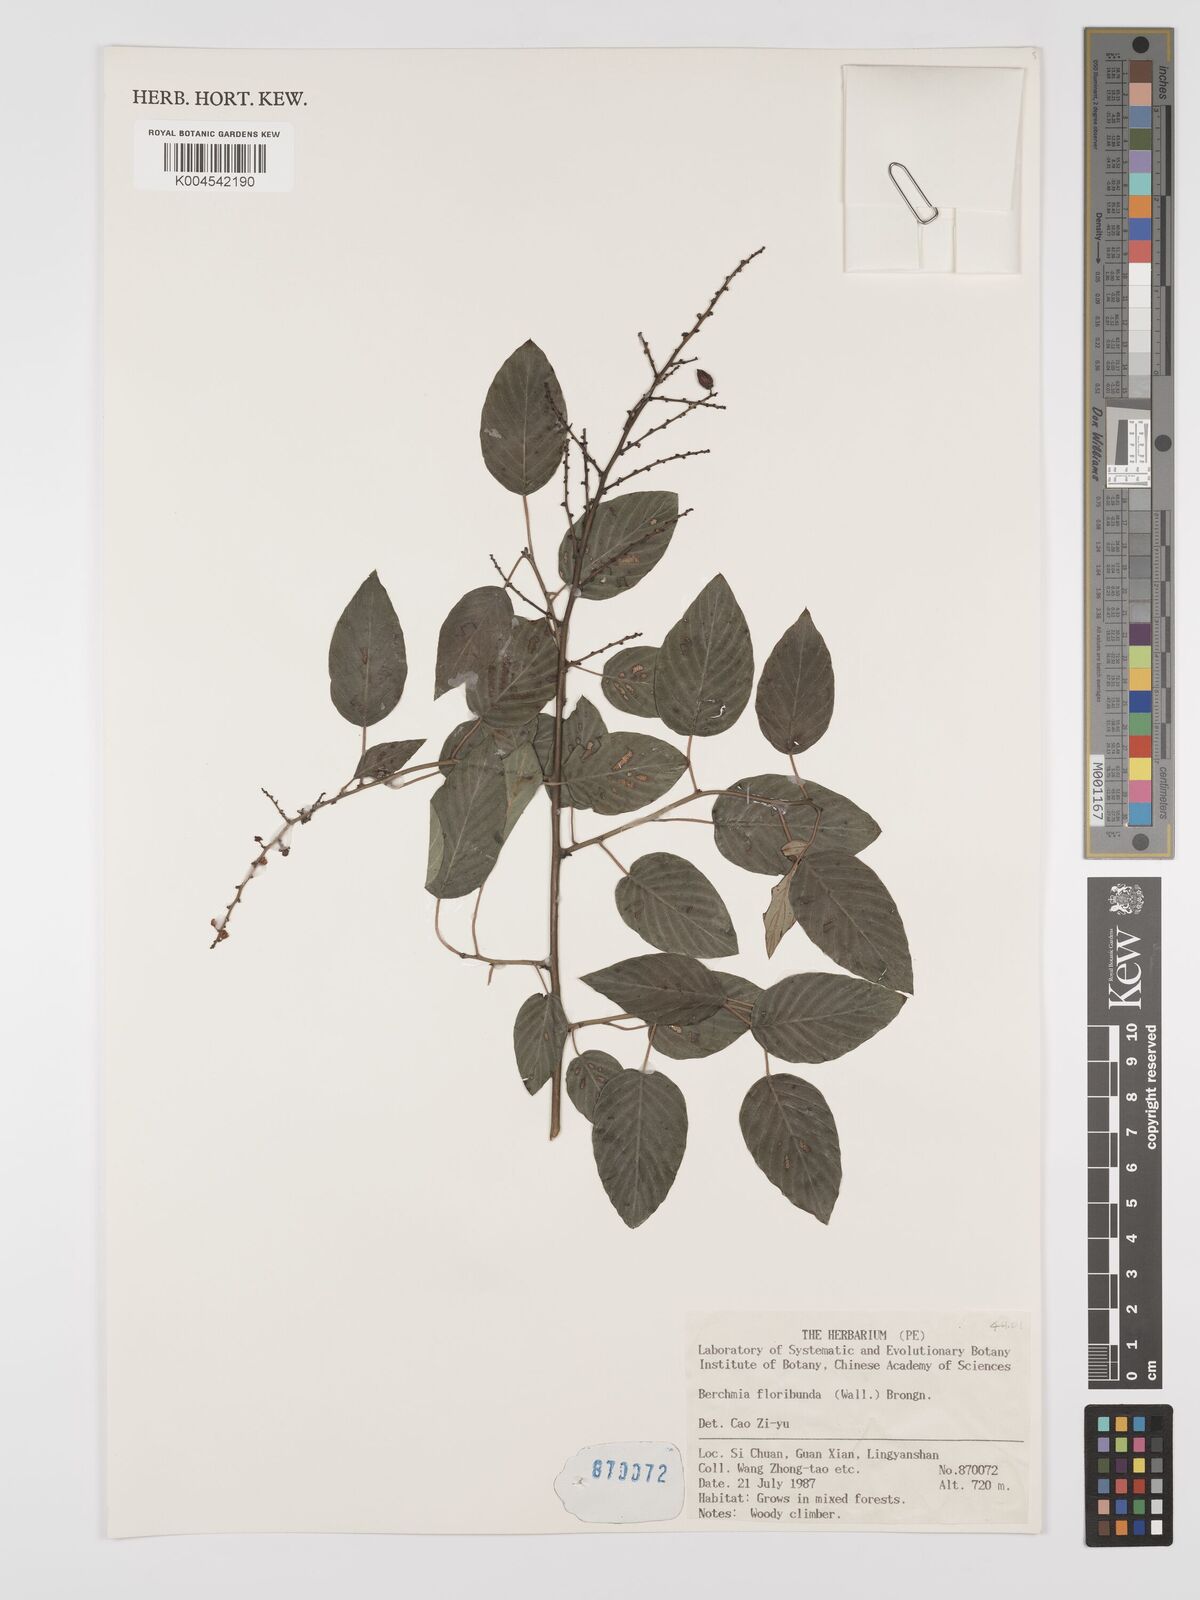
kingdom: Plantae
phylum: Tracheophyta
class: Magnoliopsida
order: Rosales
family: Rhamnaceae
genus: Berchemia
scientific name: Berchemia floribunda
